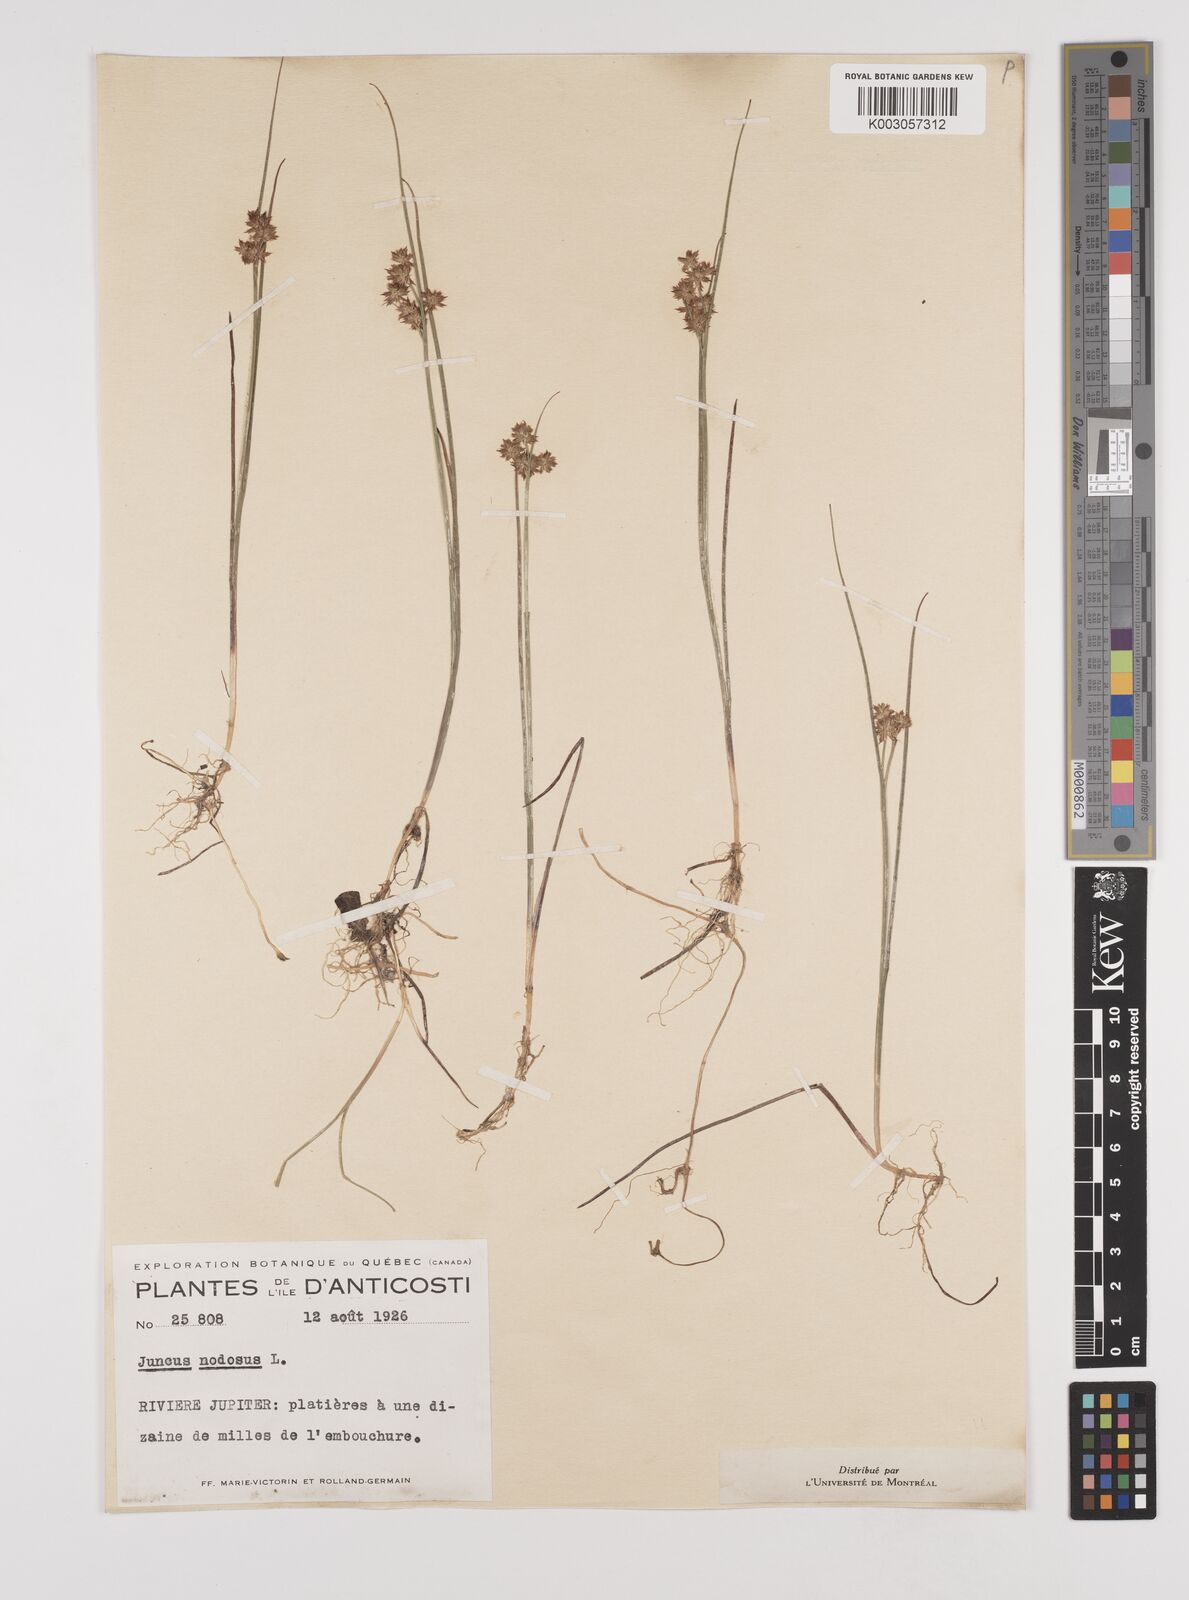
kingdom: Plantae
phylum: Tracheophyta
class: Liliopsida
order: Poales
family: Juncaceae
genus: Juncus
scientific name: Juncus nodosus
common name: Knotted rush
